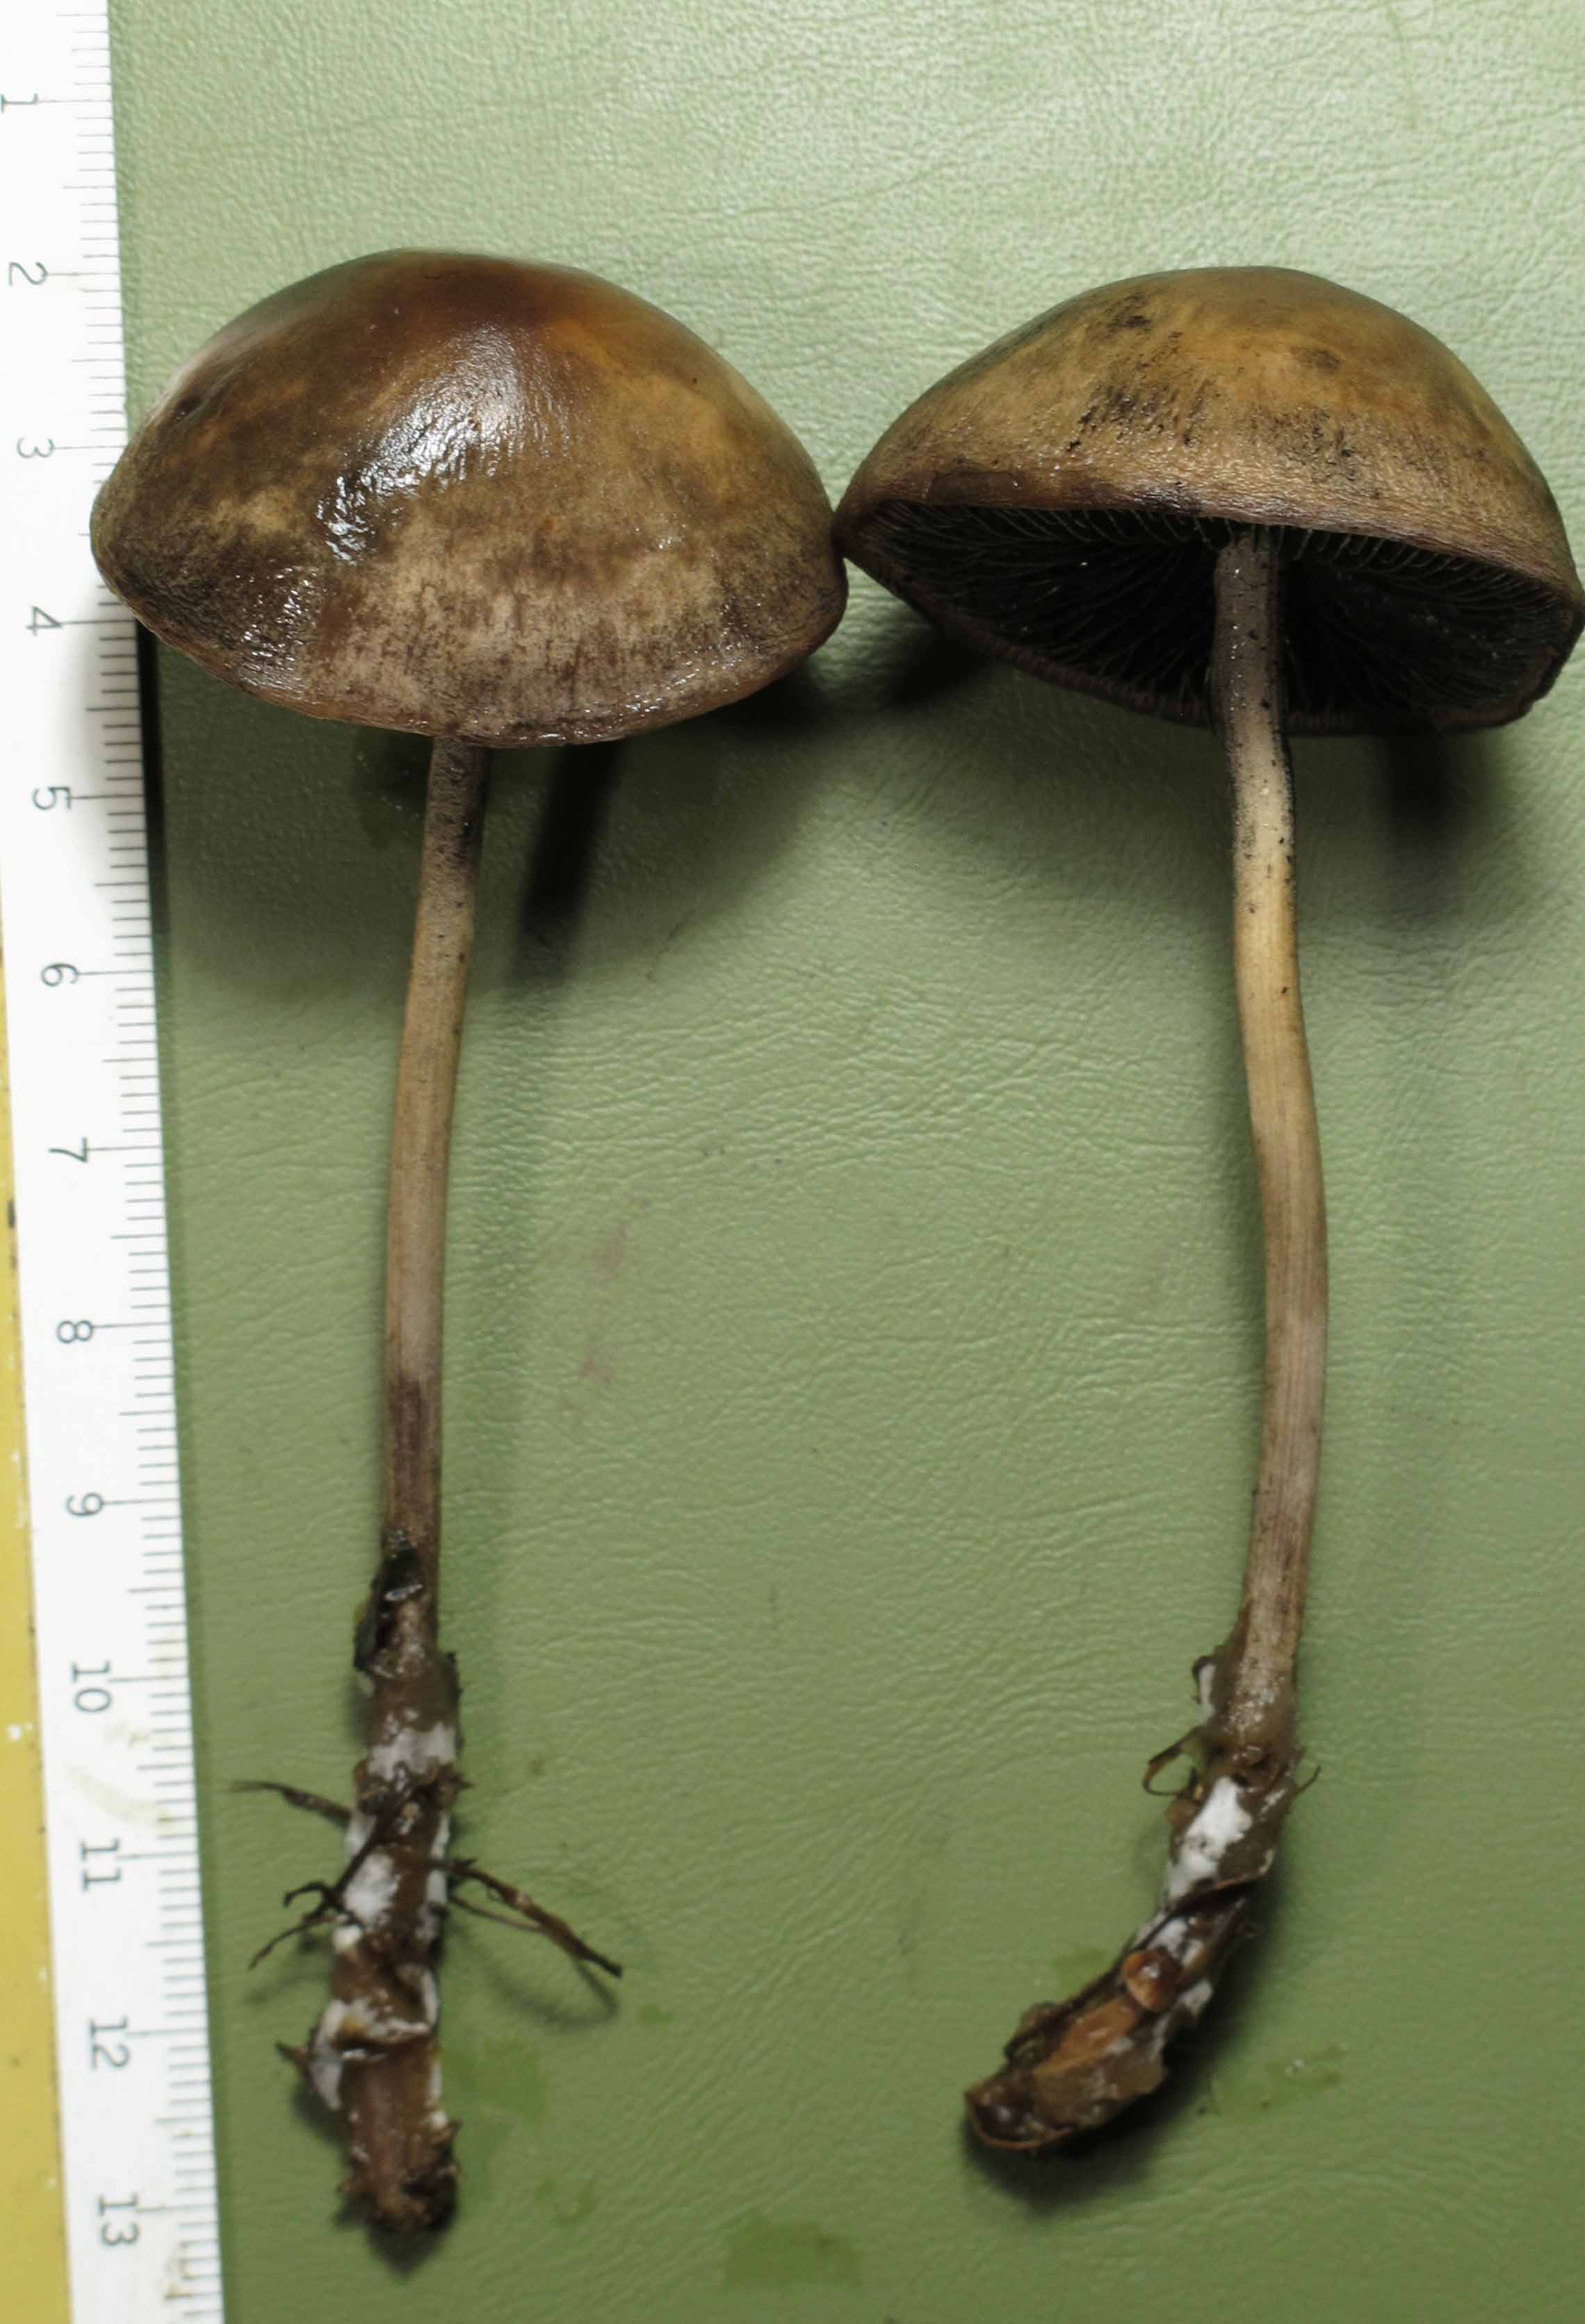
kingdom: Fungi
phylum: Basidiomycota
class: Agaricomycetes
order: Agaricales
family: Bolbitiaceae
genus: Panaeolus
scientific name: Panaeolus cinctulus
